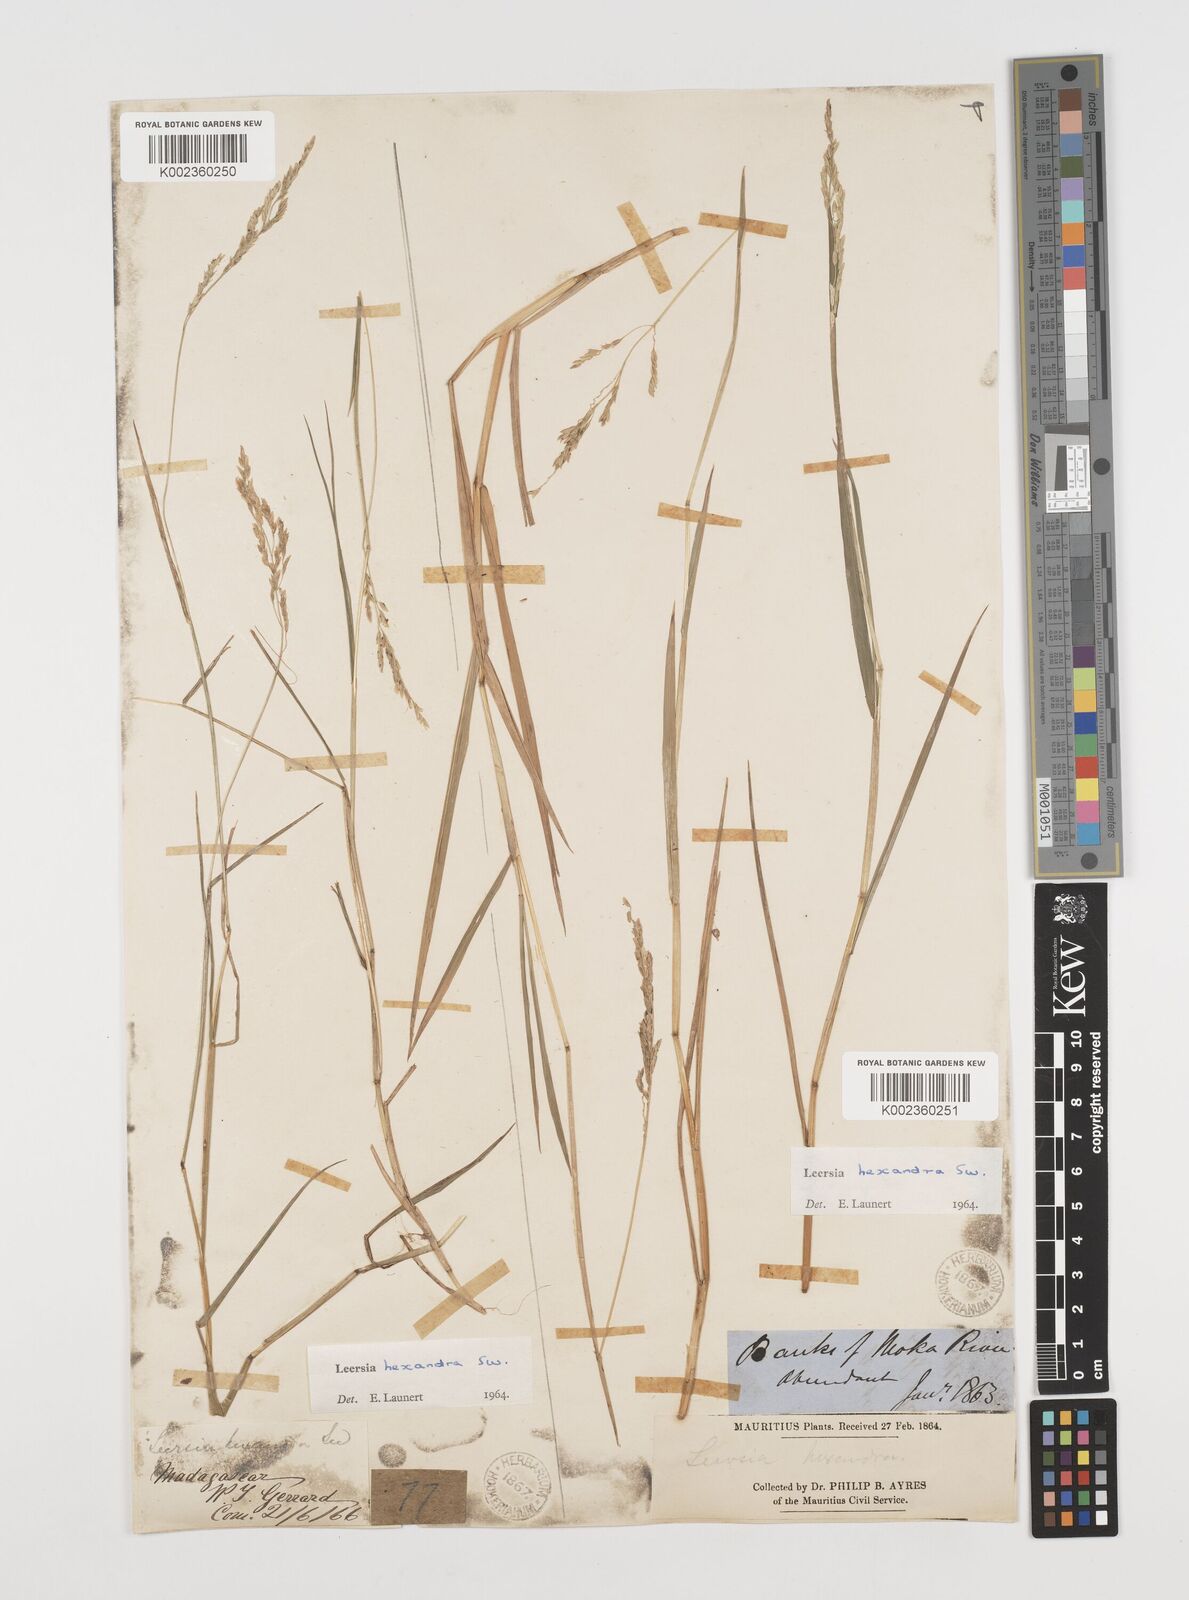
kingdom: Plantae
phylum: Tracheophyta
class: Liliopsida
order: Poales
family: Poaceae
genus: Leersia
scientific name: Leersia hexandra
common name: Southern cut grass
